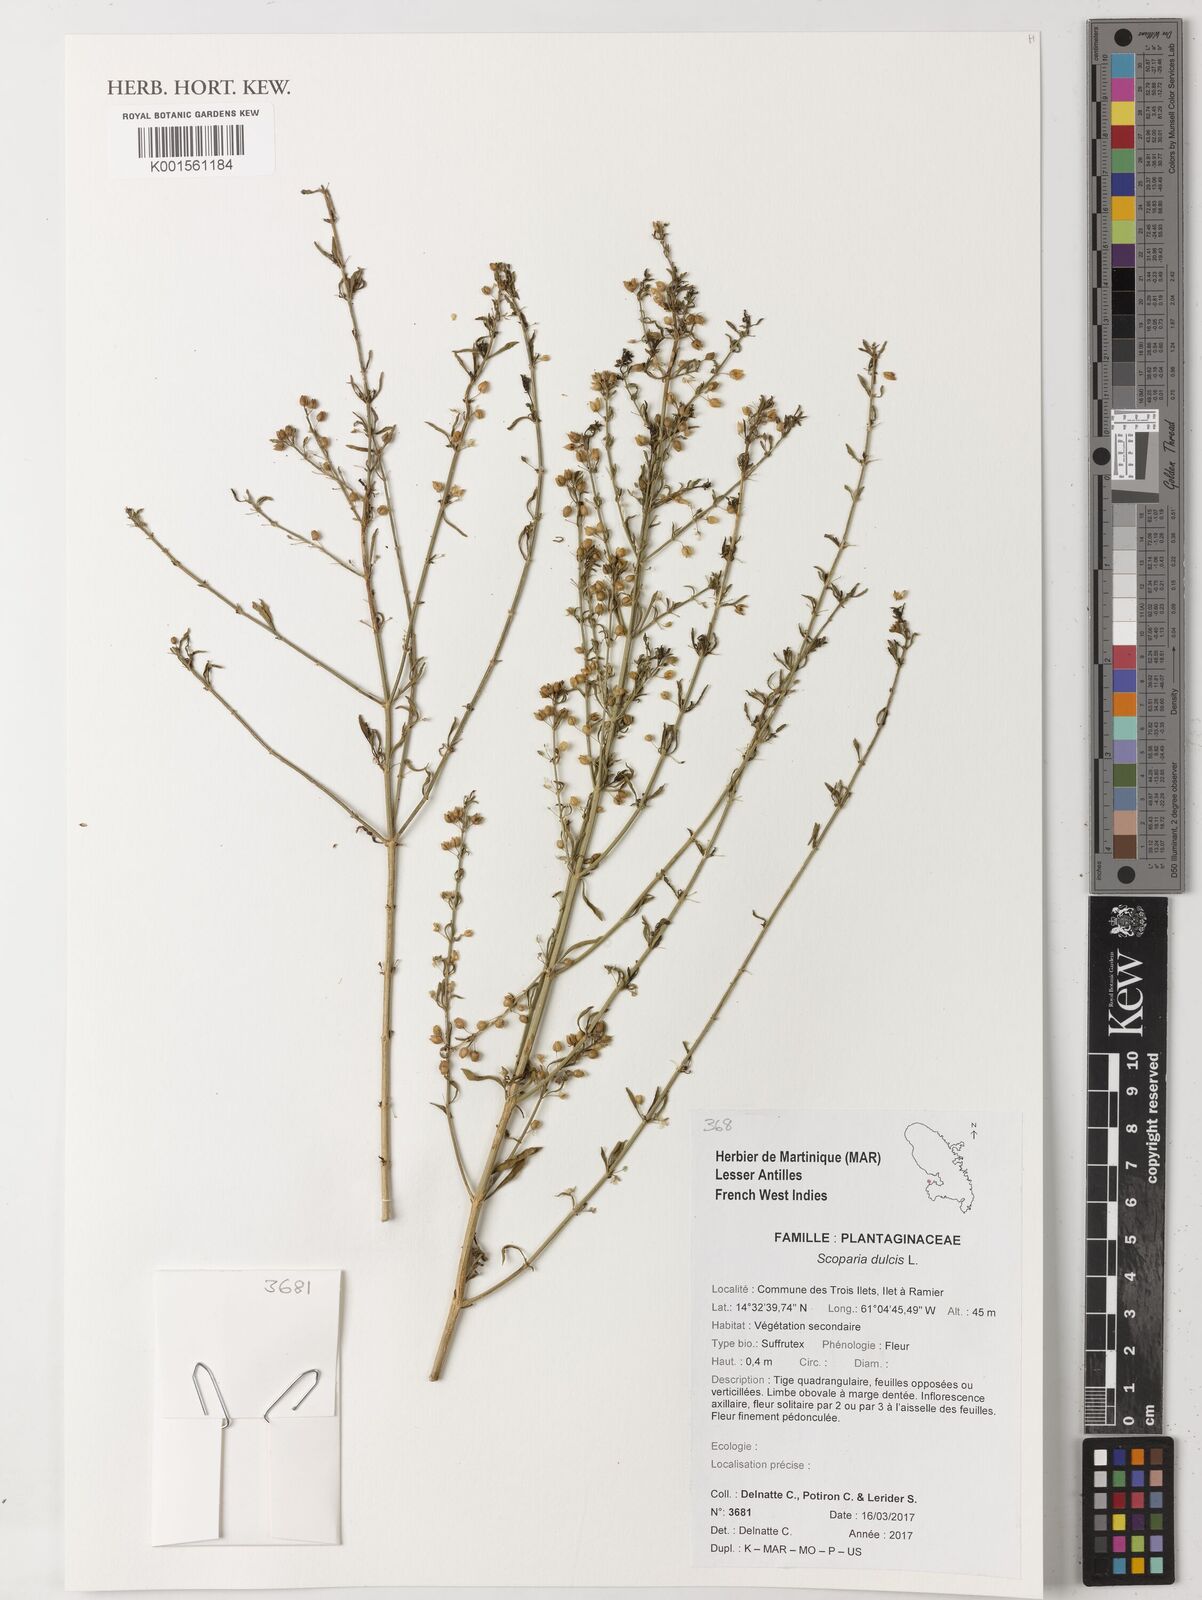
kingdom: Plantae
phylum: Tracheophyta
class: Magnoliopsida
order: Lamiales
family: Plantaginaceae
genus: Scoparia
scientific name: Scoparia dulcis
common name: Scoparia-weed
